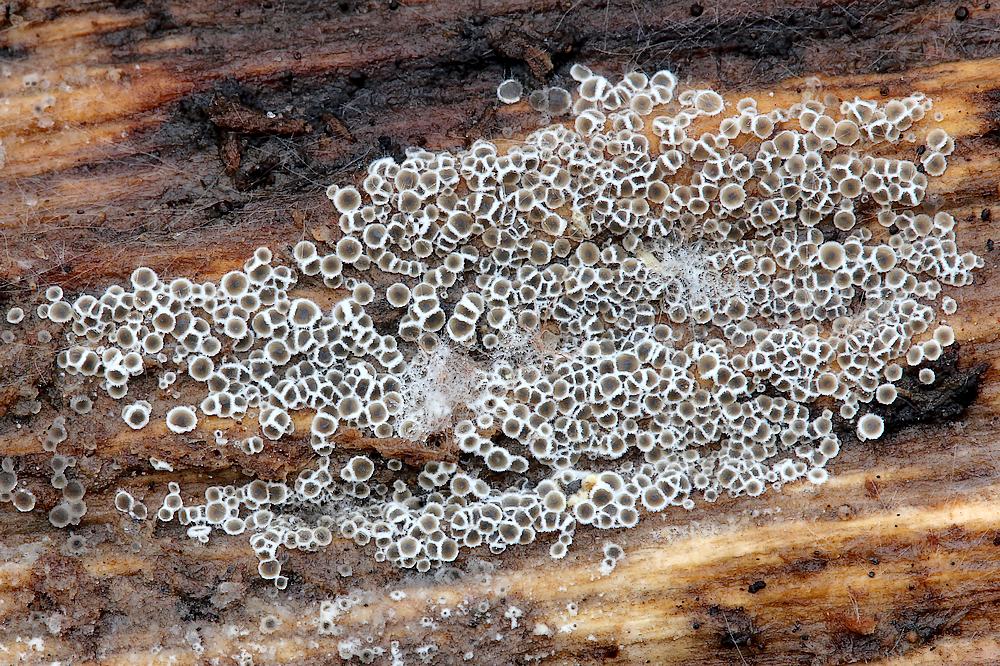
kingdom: Fungi
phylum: Ascomycota
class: Leotiomycetes
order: Helotiales
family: Arachnopezizaceae
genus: Eriopezia
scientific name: Eriopezia caesia
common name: ege-spindskive
